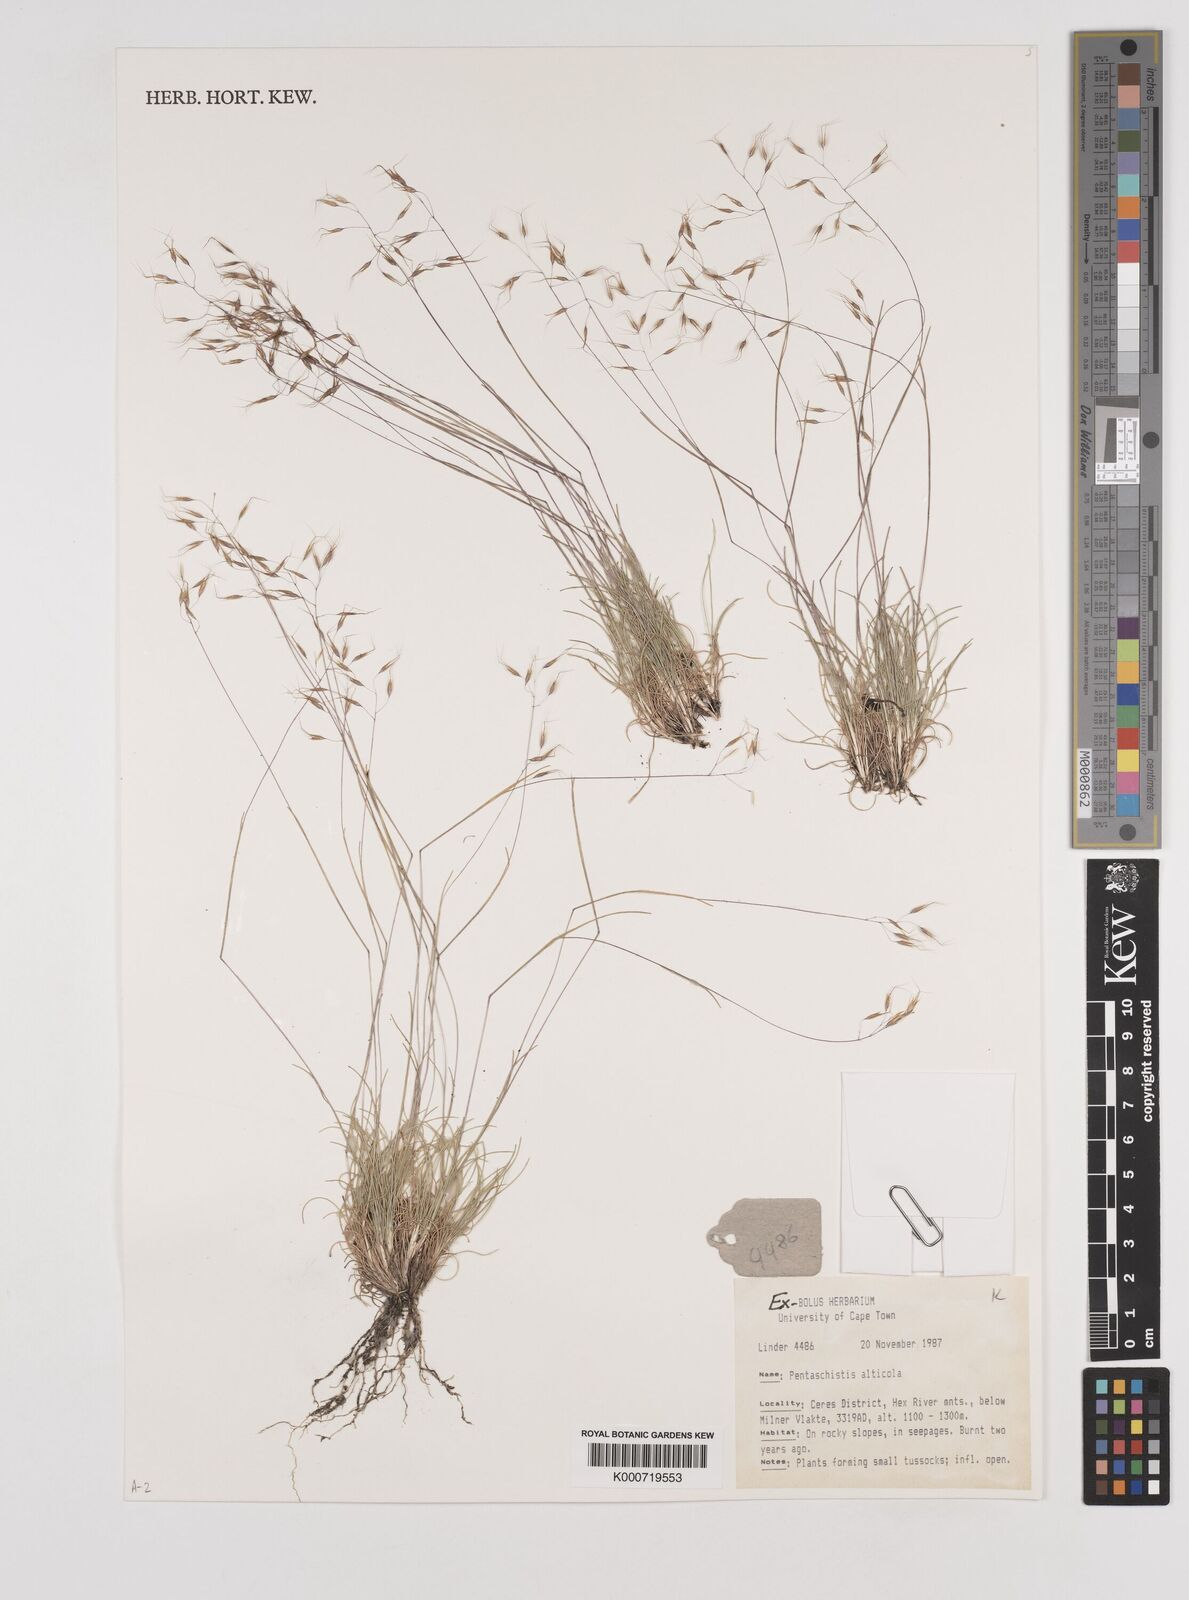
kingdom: Plantae
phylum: Tracheophyta
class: Liliopsida
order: Poales
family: Poaceae
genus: Pentameris
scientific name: Pentameris alticola
